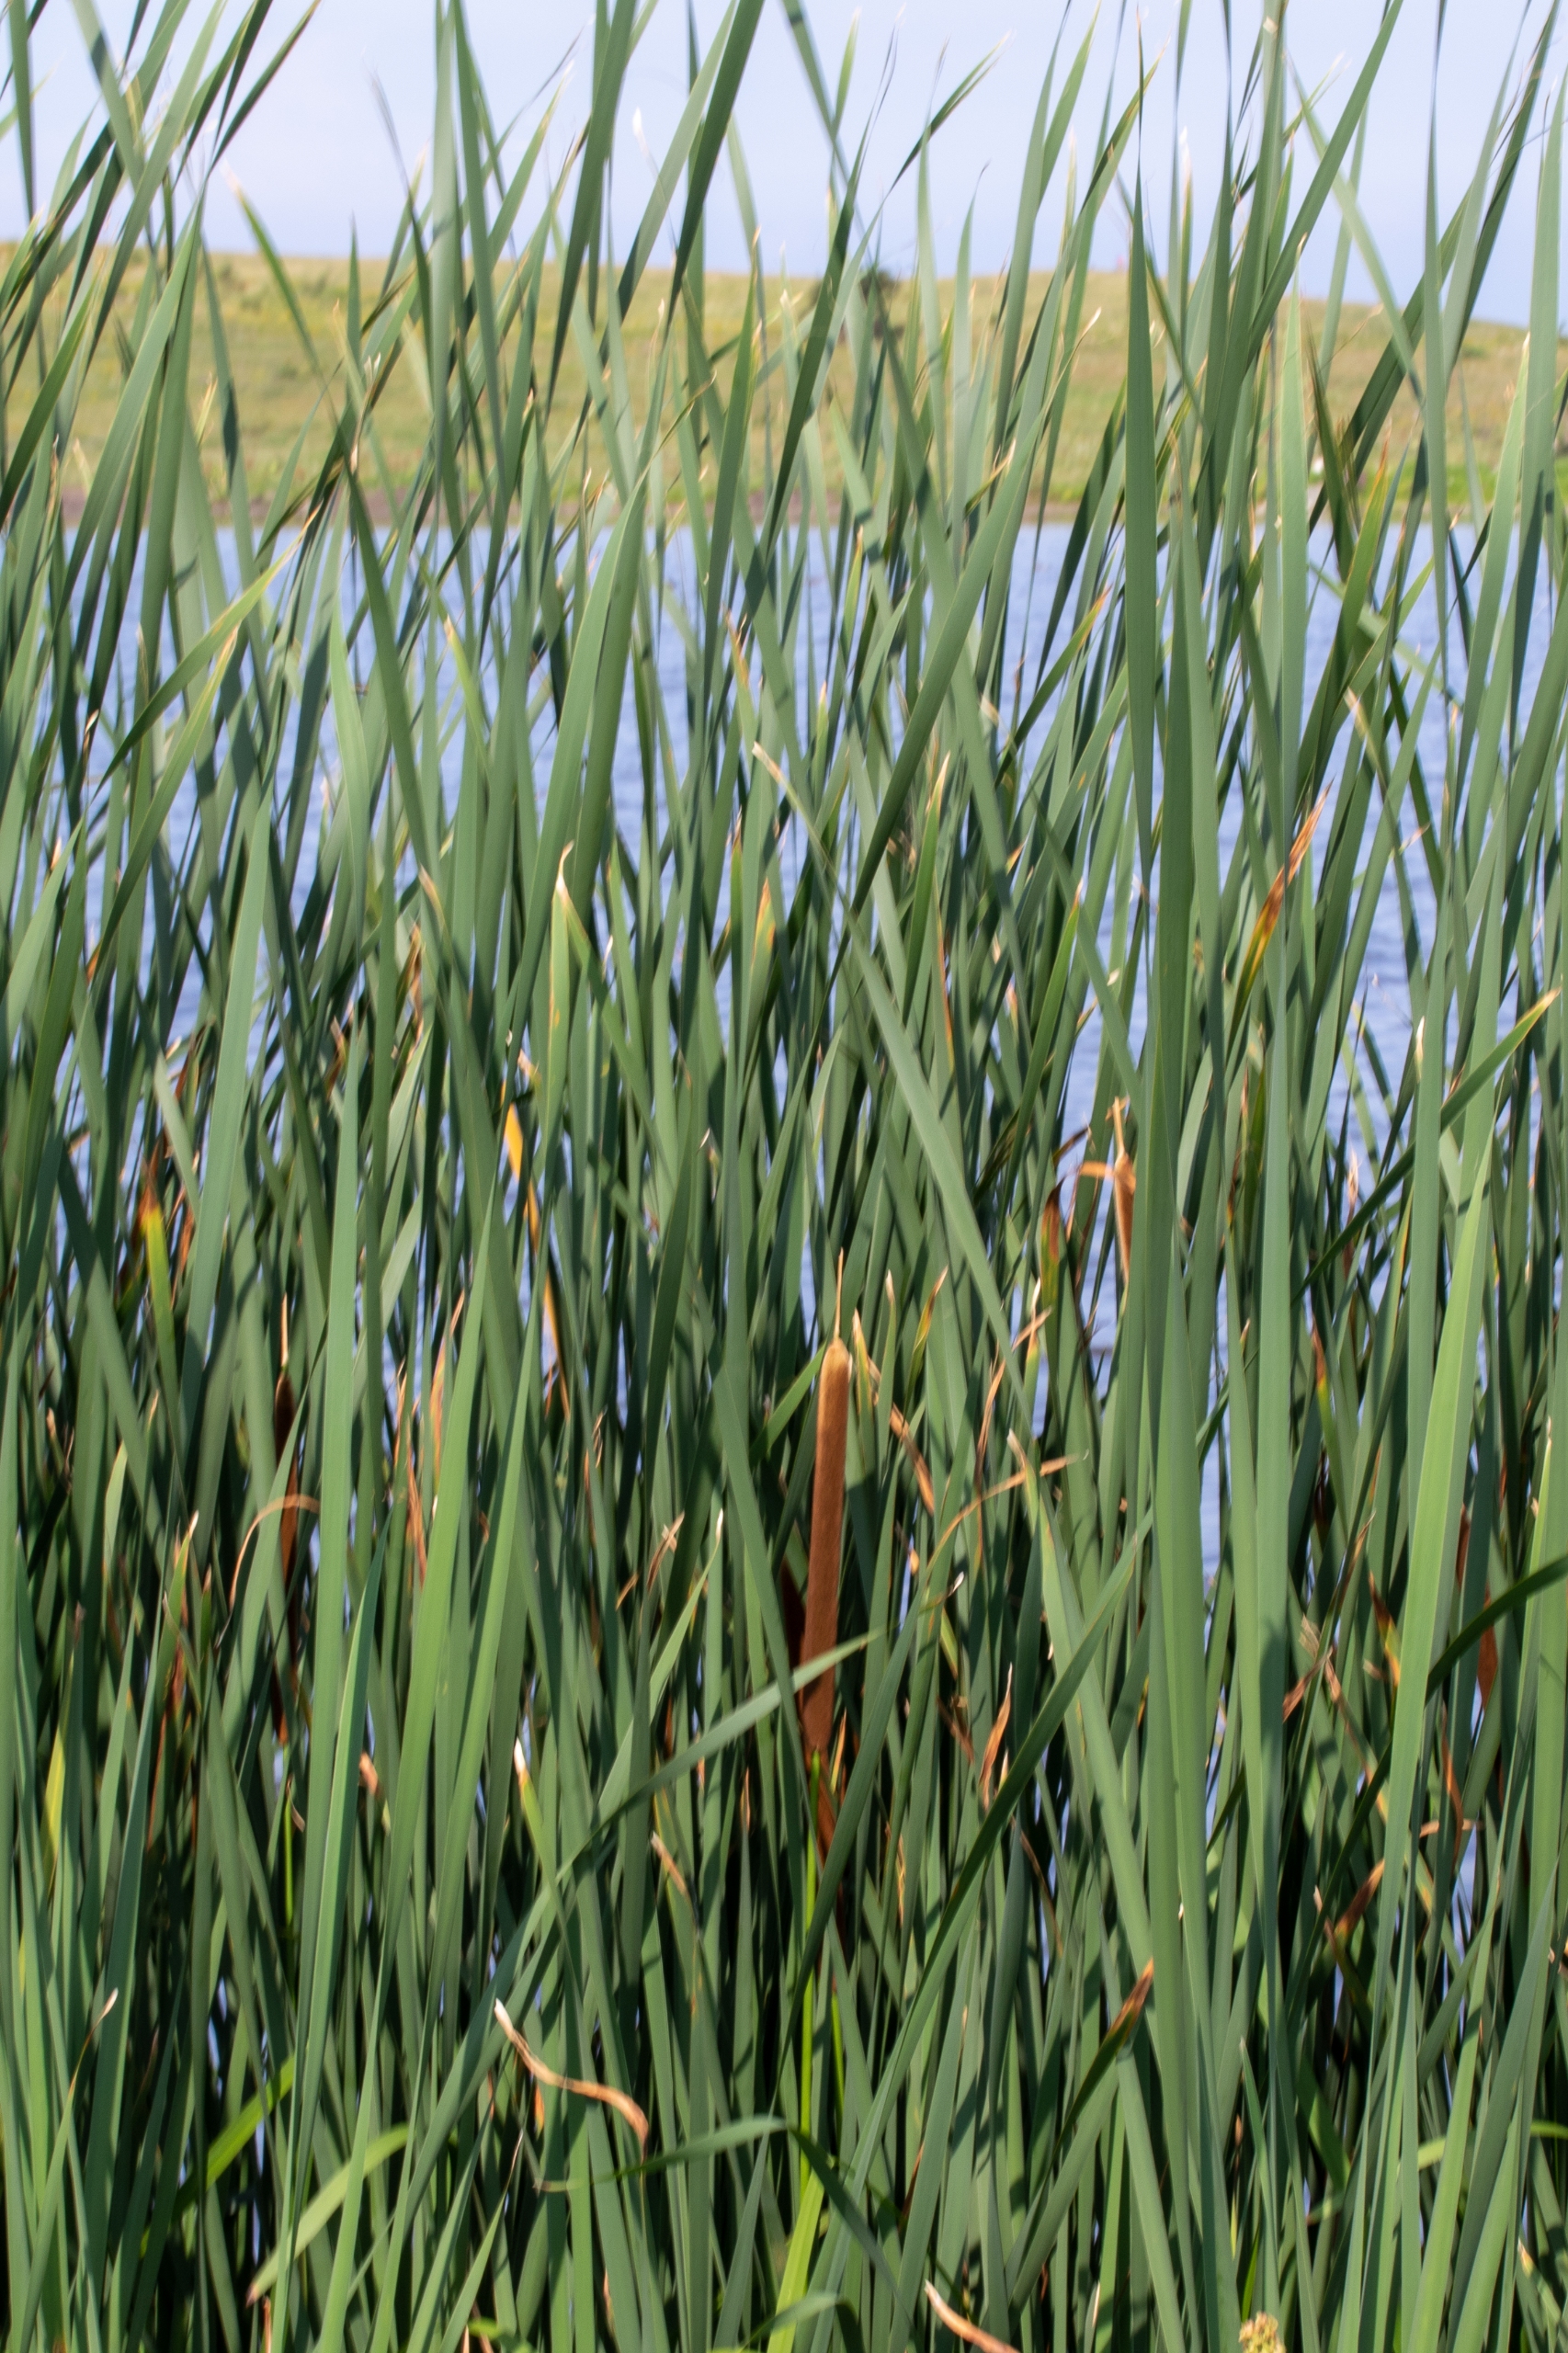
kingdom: Plantae
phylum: Tracheophyta
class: Liliopsida
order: Poales
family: Typhaceae
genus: Typha
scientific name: Typha latifolia
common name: Bredbladet dunhammer
